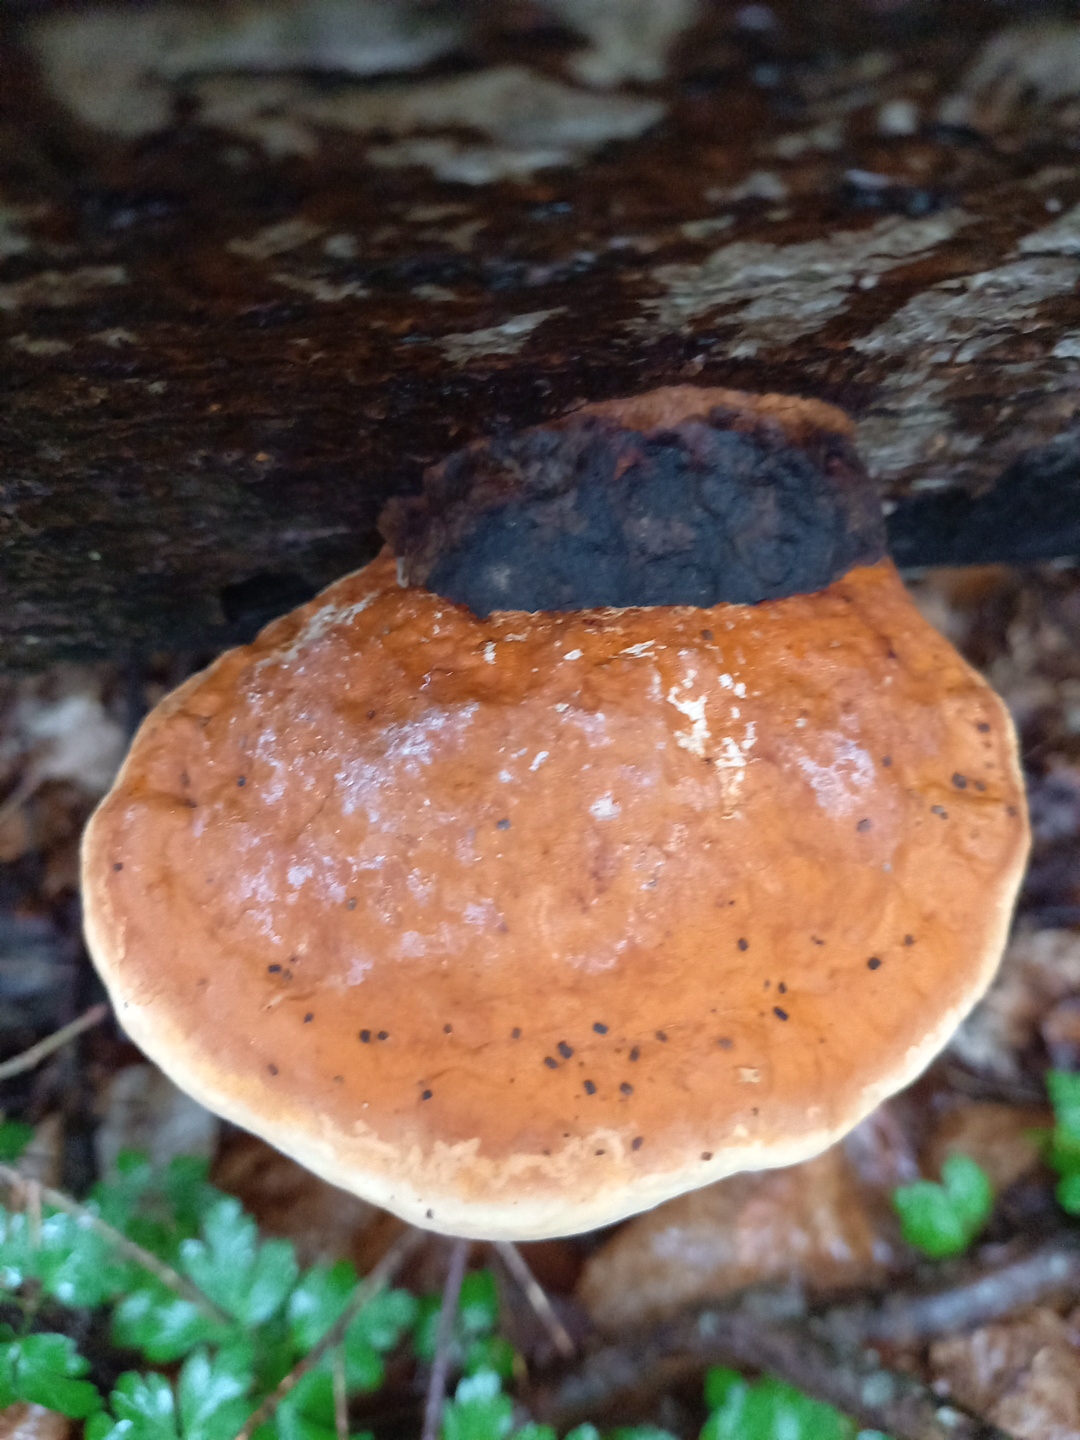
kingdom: Fungi
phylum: Basidiomycota
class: Agaricomycetes
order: Polyporales
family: Fomitopsidaceae
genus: Fomitopsis
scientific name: Fomitopsis pinicola
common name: randbæltet hovporesvamp
